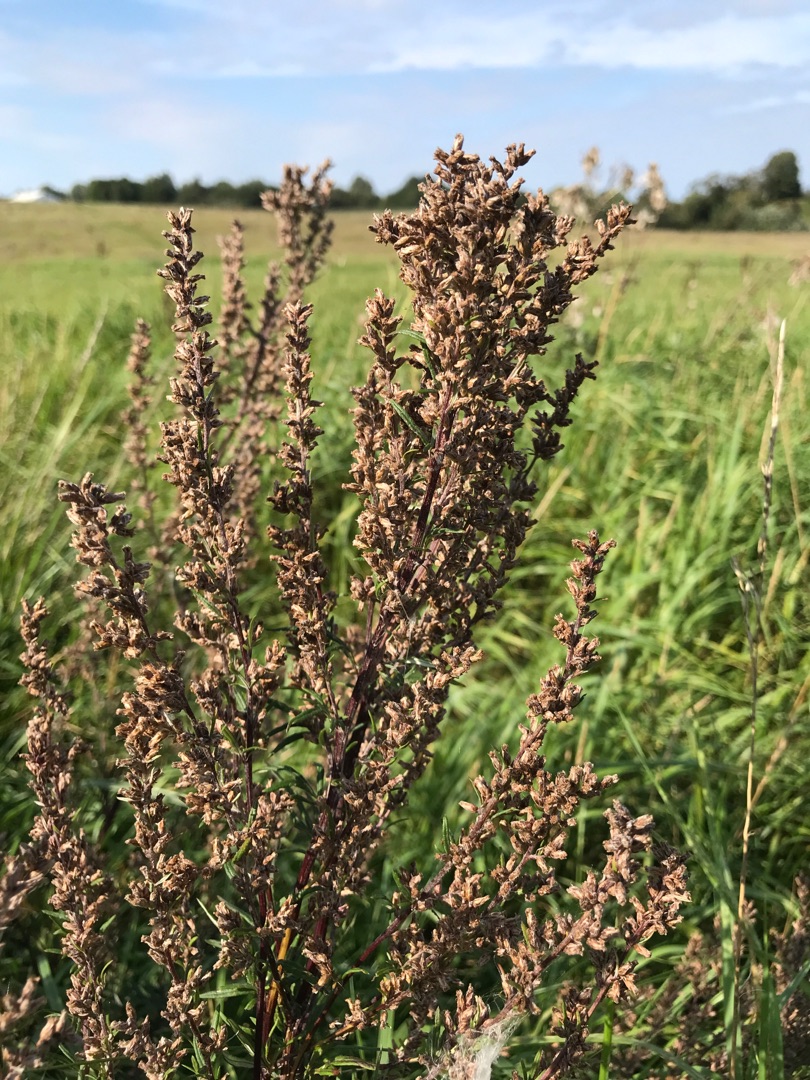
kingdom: Plantae
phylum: Tracheophyta
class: Magnoliopsida
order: Asterales
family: Asteraceae
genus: Artemisia
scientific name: Artemisia vulgaris
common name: Grå-bynke
